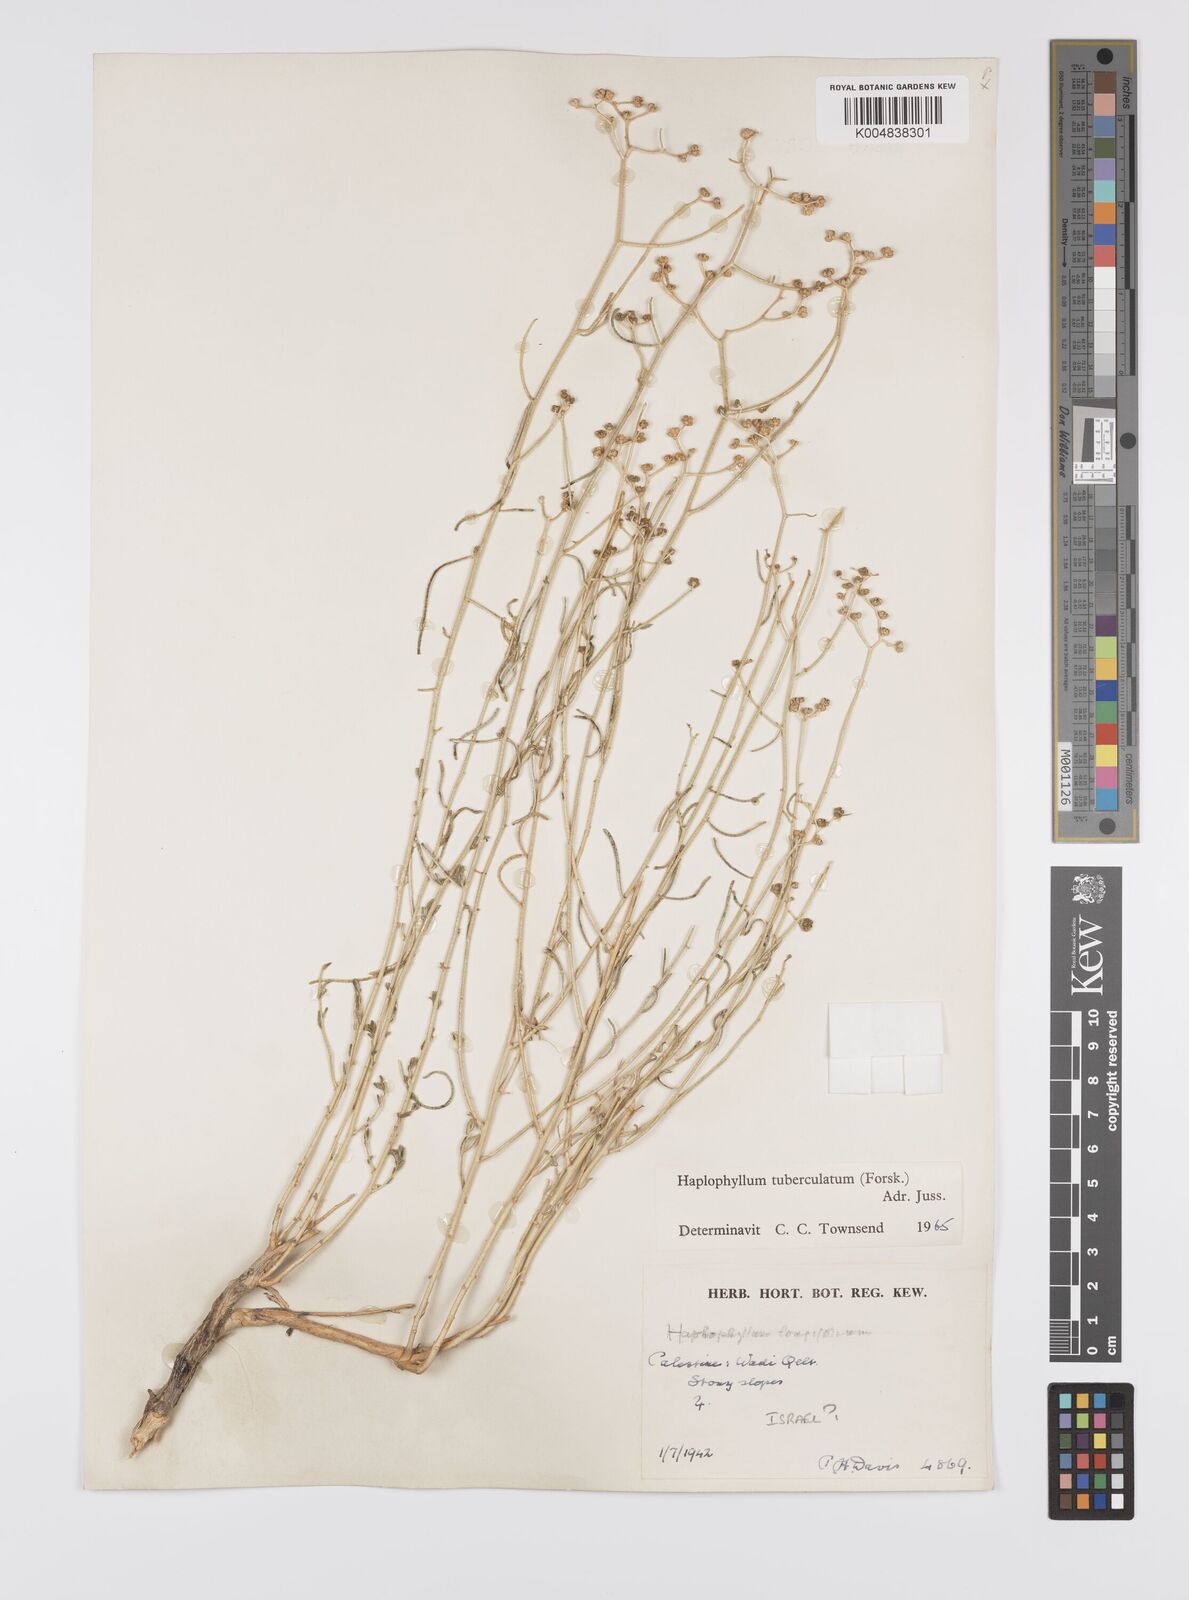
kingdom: Plantae
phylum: Tracheophyta
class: Magnoliopsida
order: Sapindales
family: Rutaceae
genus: Haplophyllum
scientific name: Haplophyllum tuberculatum
